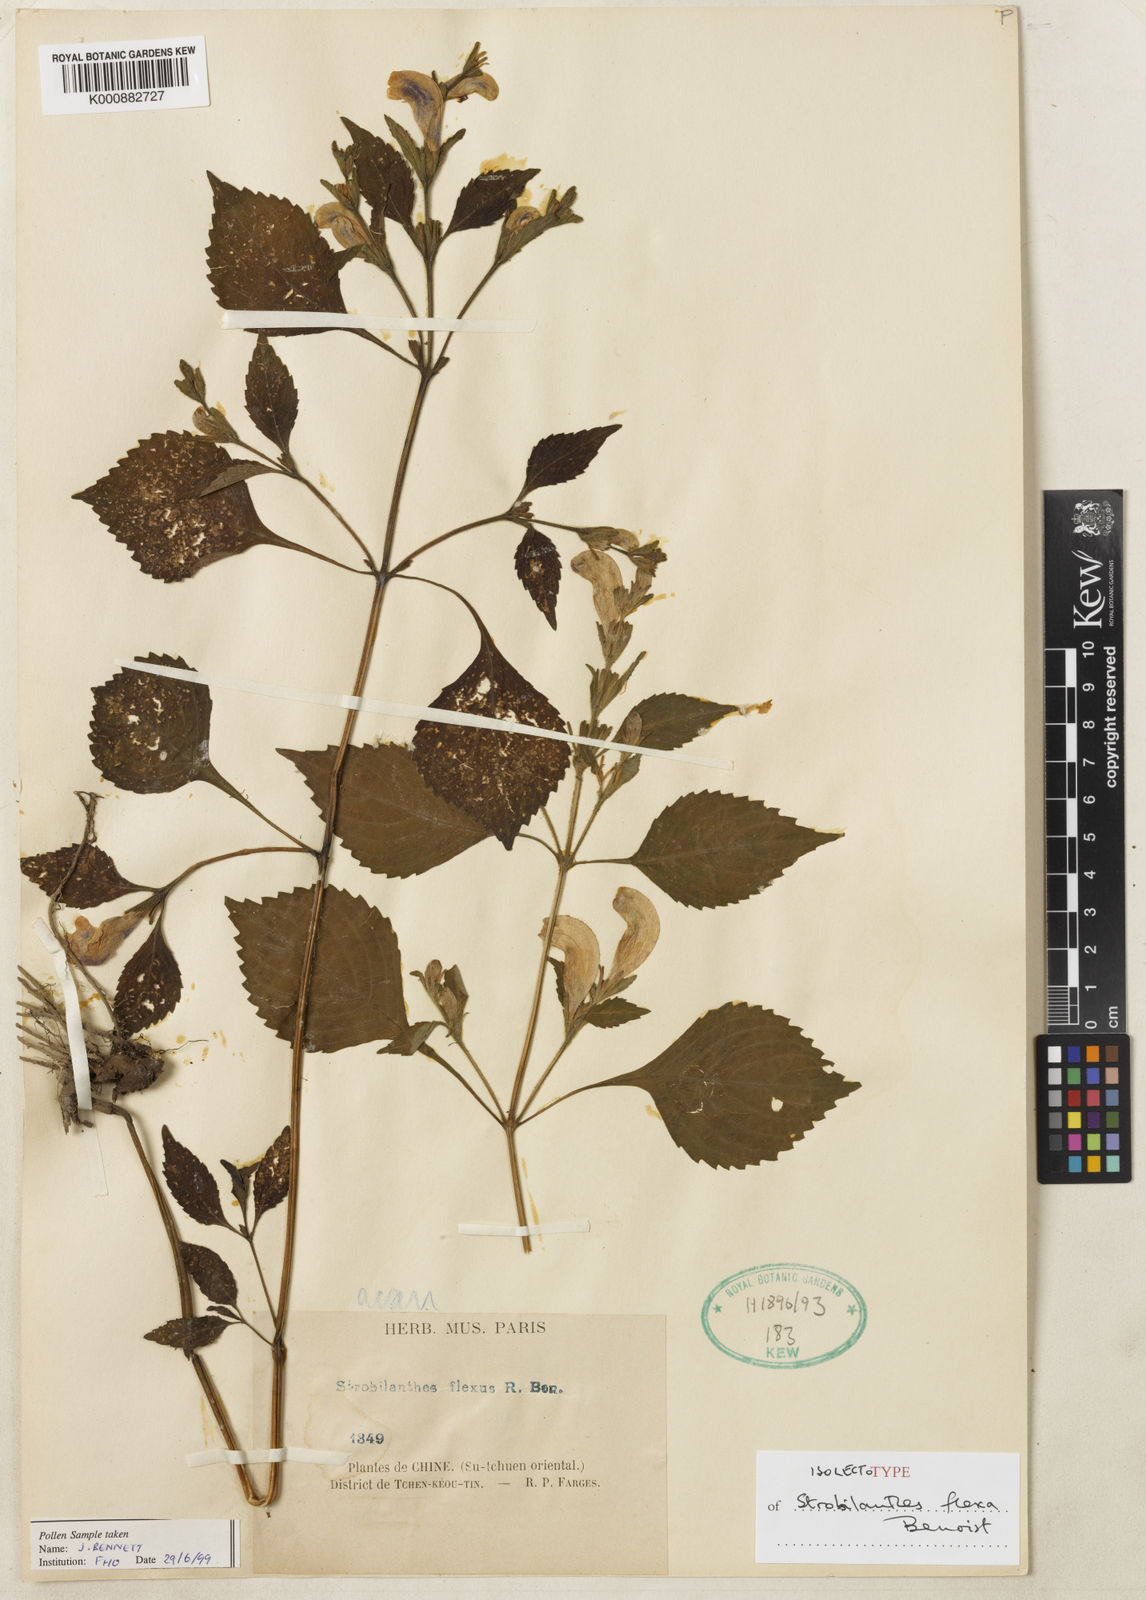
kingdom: Plantae
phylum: Tracheophyta
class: Magnoliopsida
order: Lamiales
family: Acanthaceae
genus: Strobilanthes
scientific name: Strobilanthes versicolor
